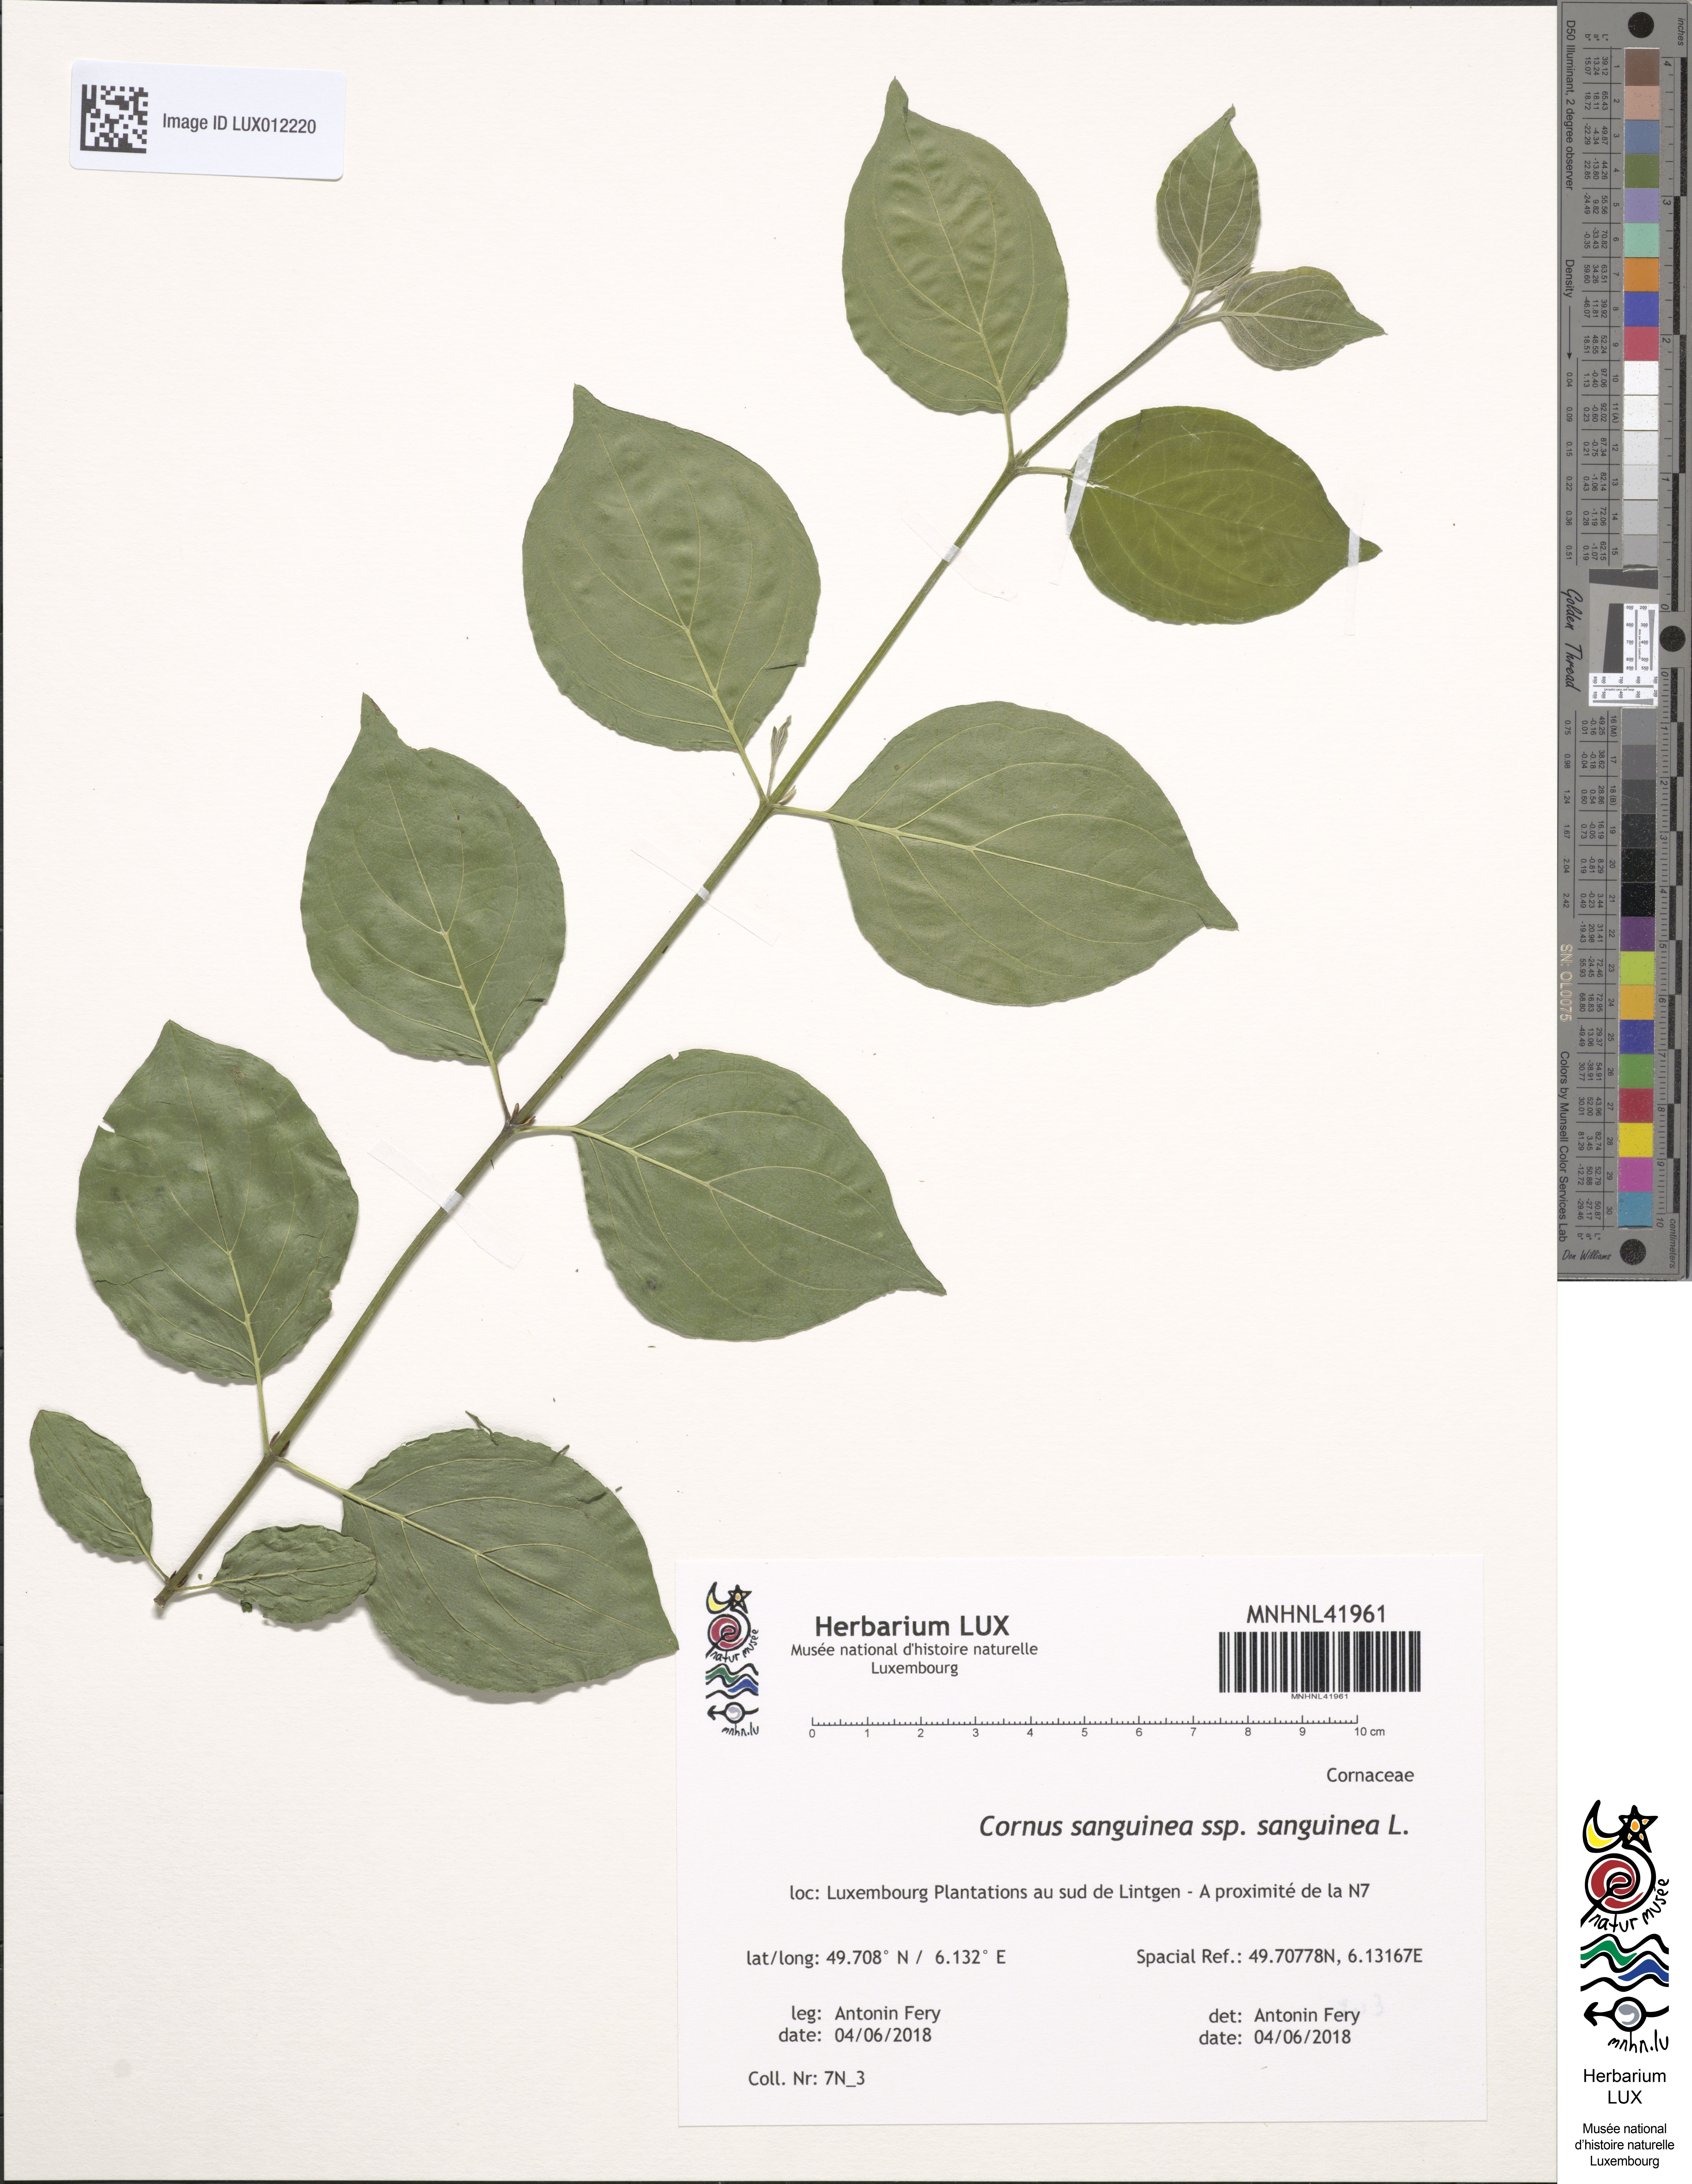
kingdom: Plantae
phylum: Tracheophyta
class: Magnoliopsida
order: Cornales
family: Cornaceae
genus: Cornus
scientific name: Cornus sanguinea
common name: Dogwood
